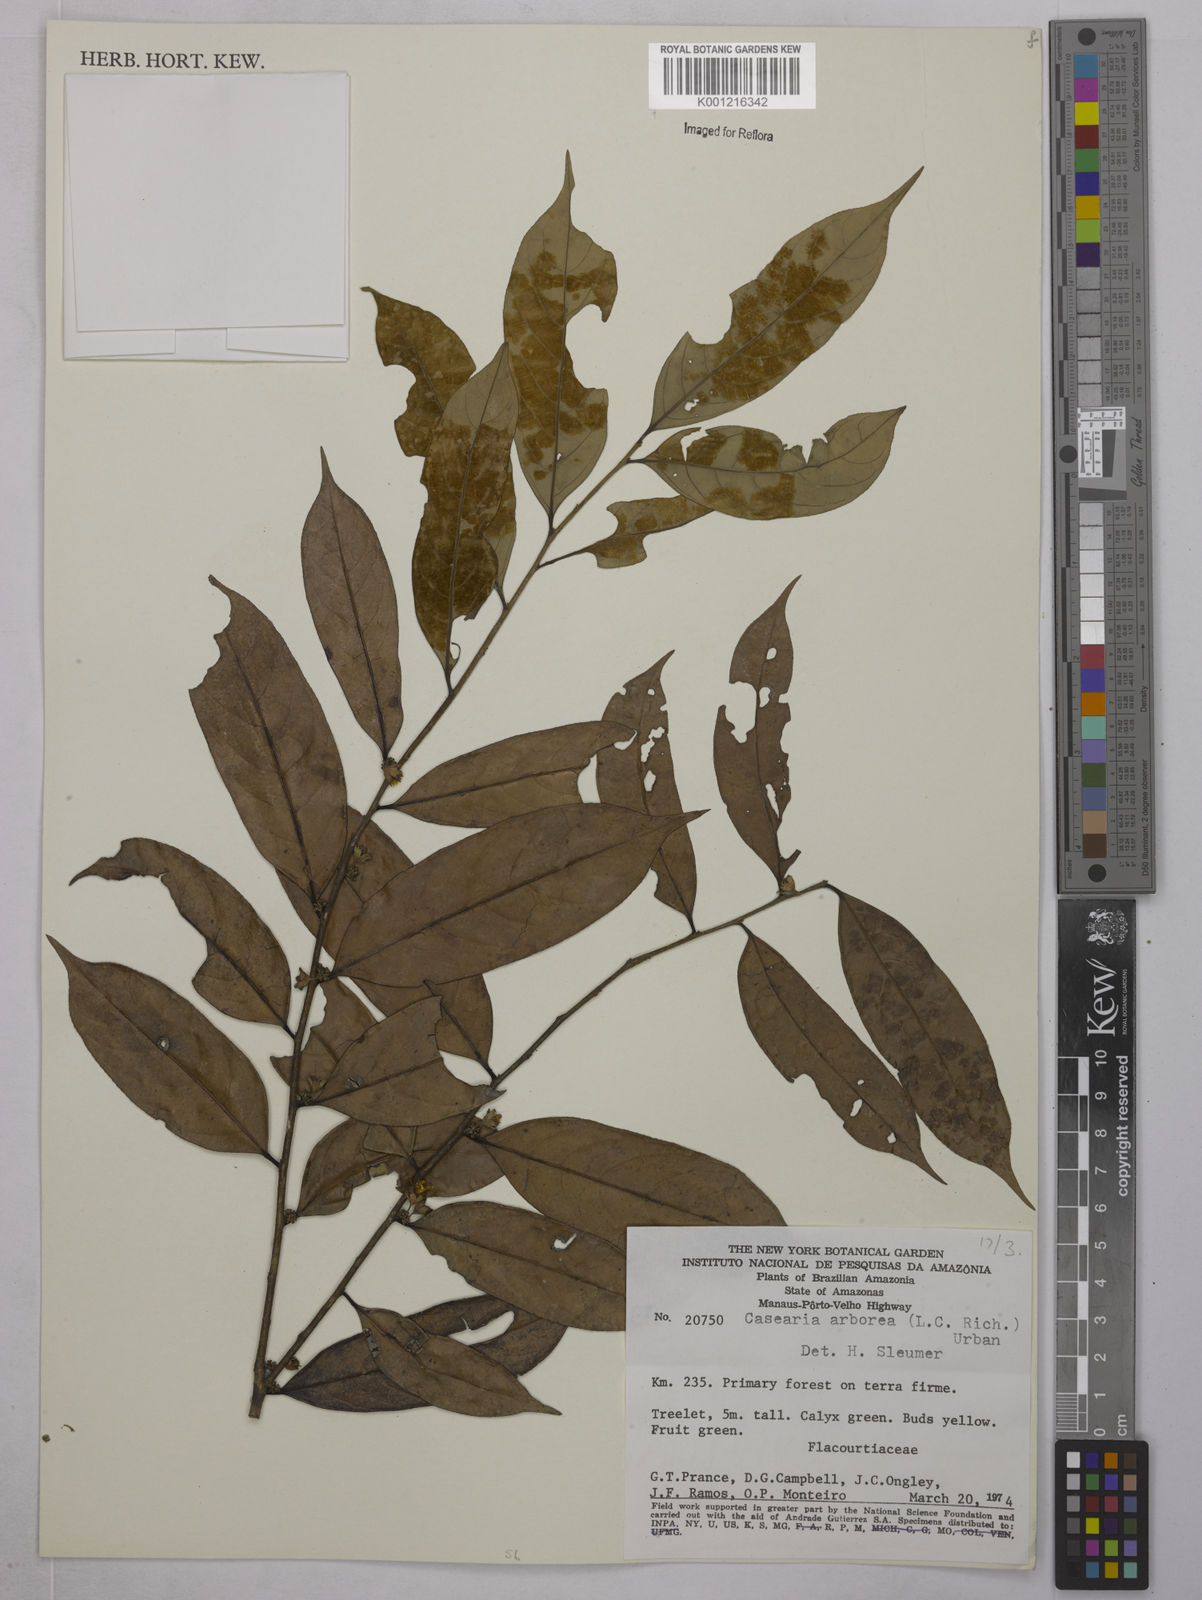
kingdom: Plantae
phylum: Tracheophyta
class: Magnoliopsida
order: Malpighiales
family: Salicaceae
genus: Casearia
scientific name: Casearia arborea
